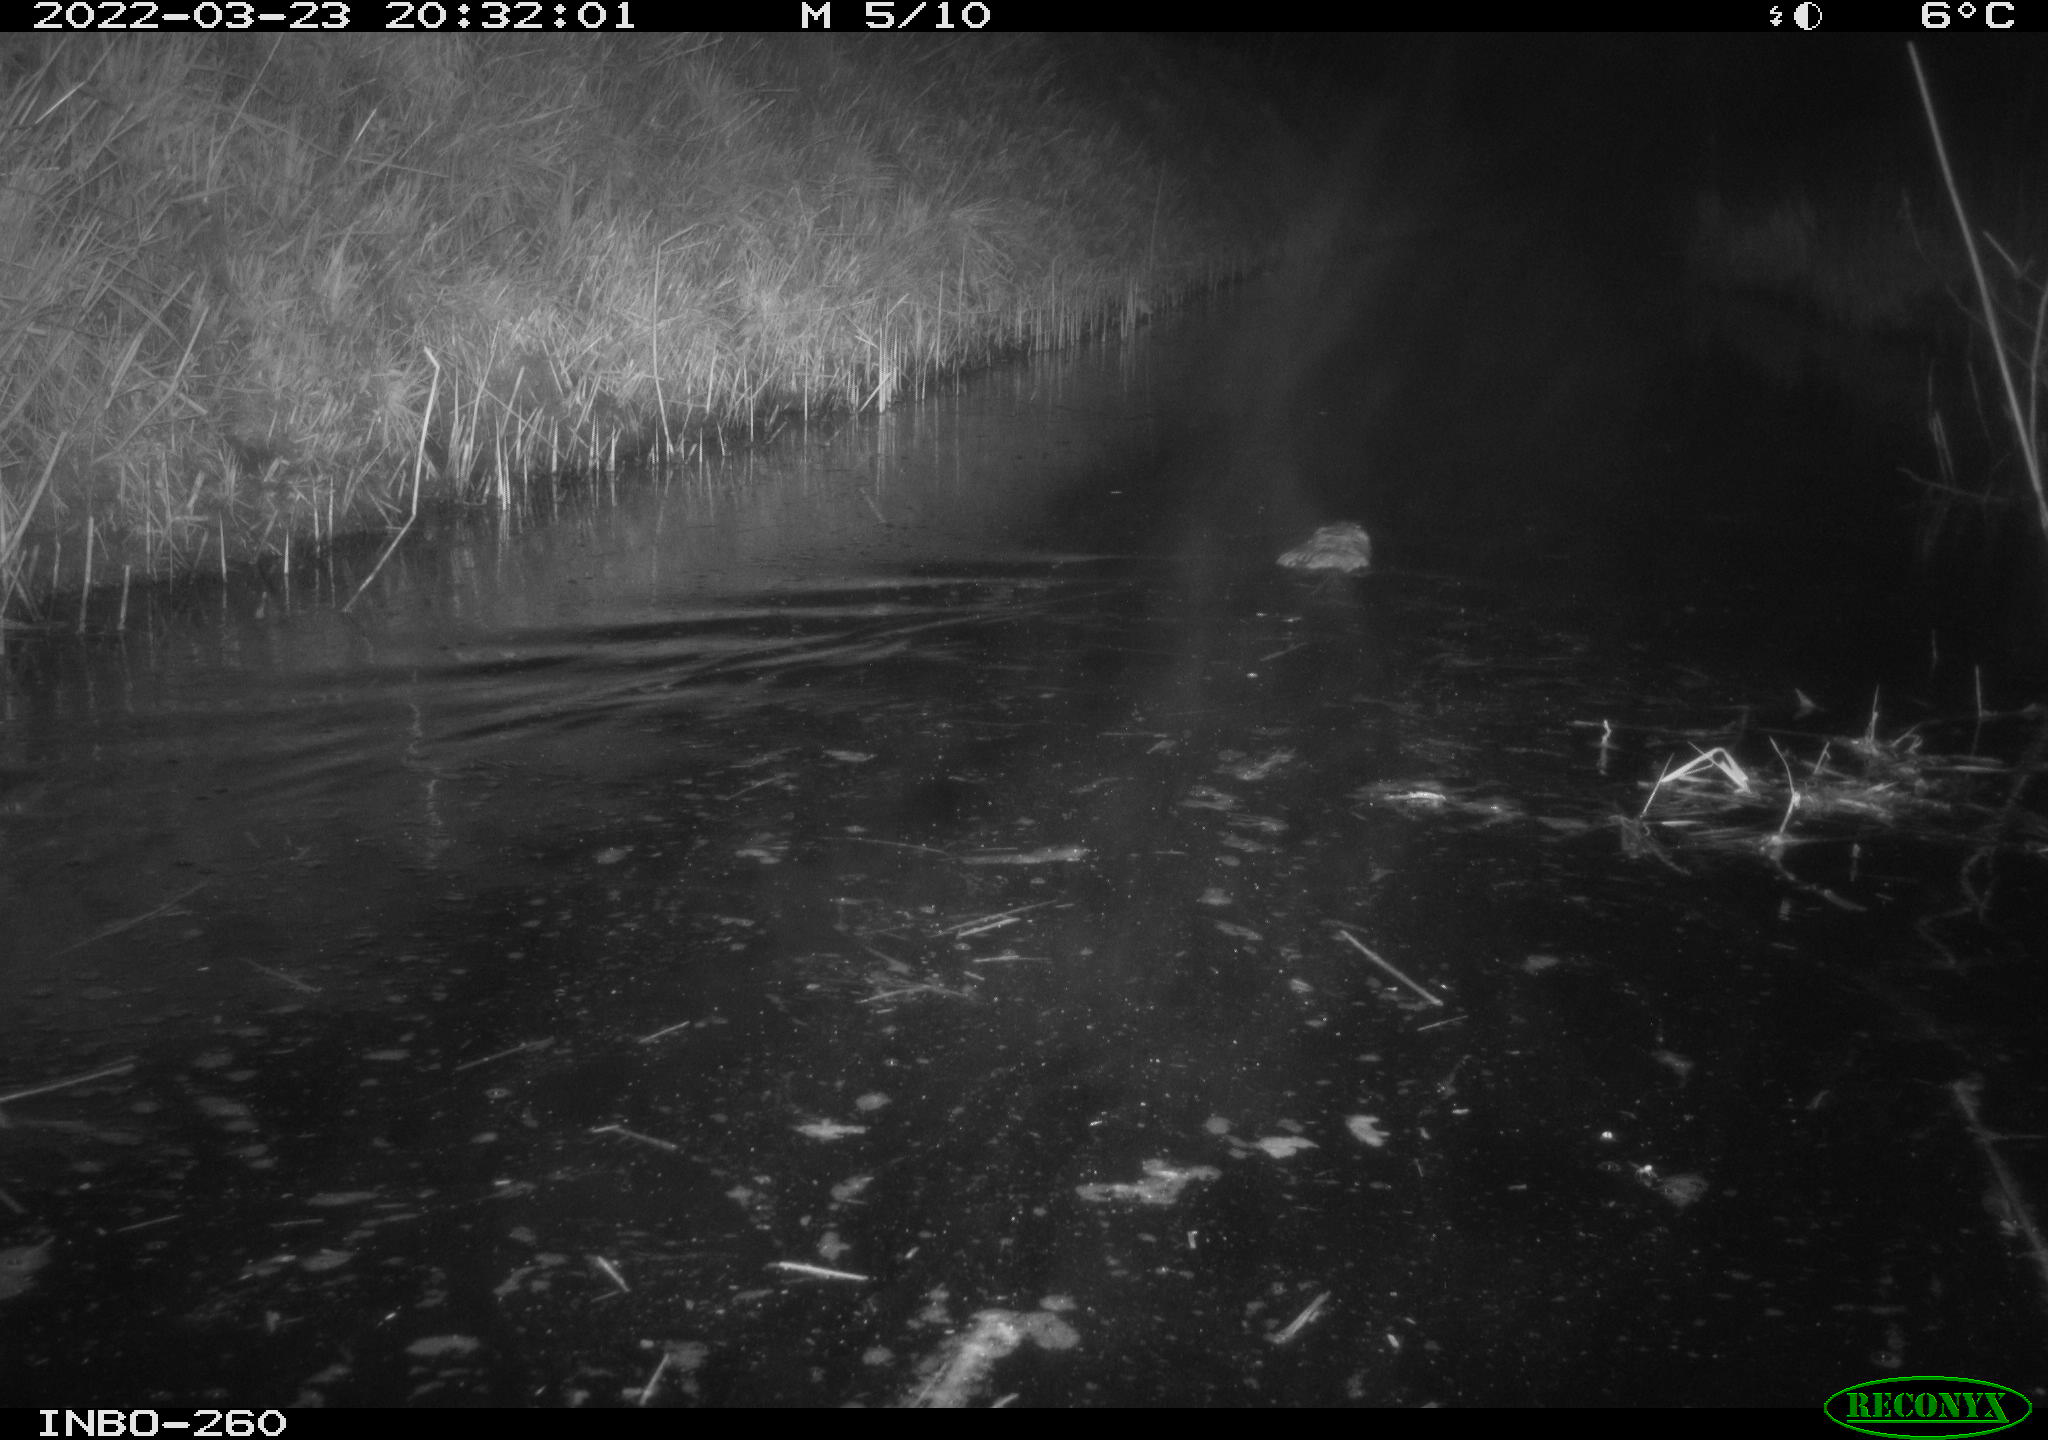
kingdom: Animalia
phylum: Chordata
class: Mammalia
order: Rodentia
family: Cricetidae
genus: Ondatra
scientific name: Ondatra zibethicus
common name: Muskrat
